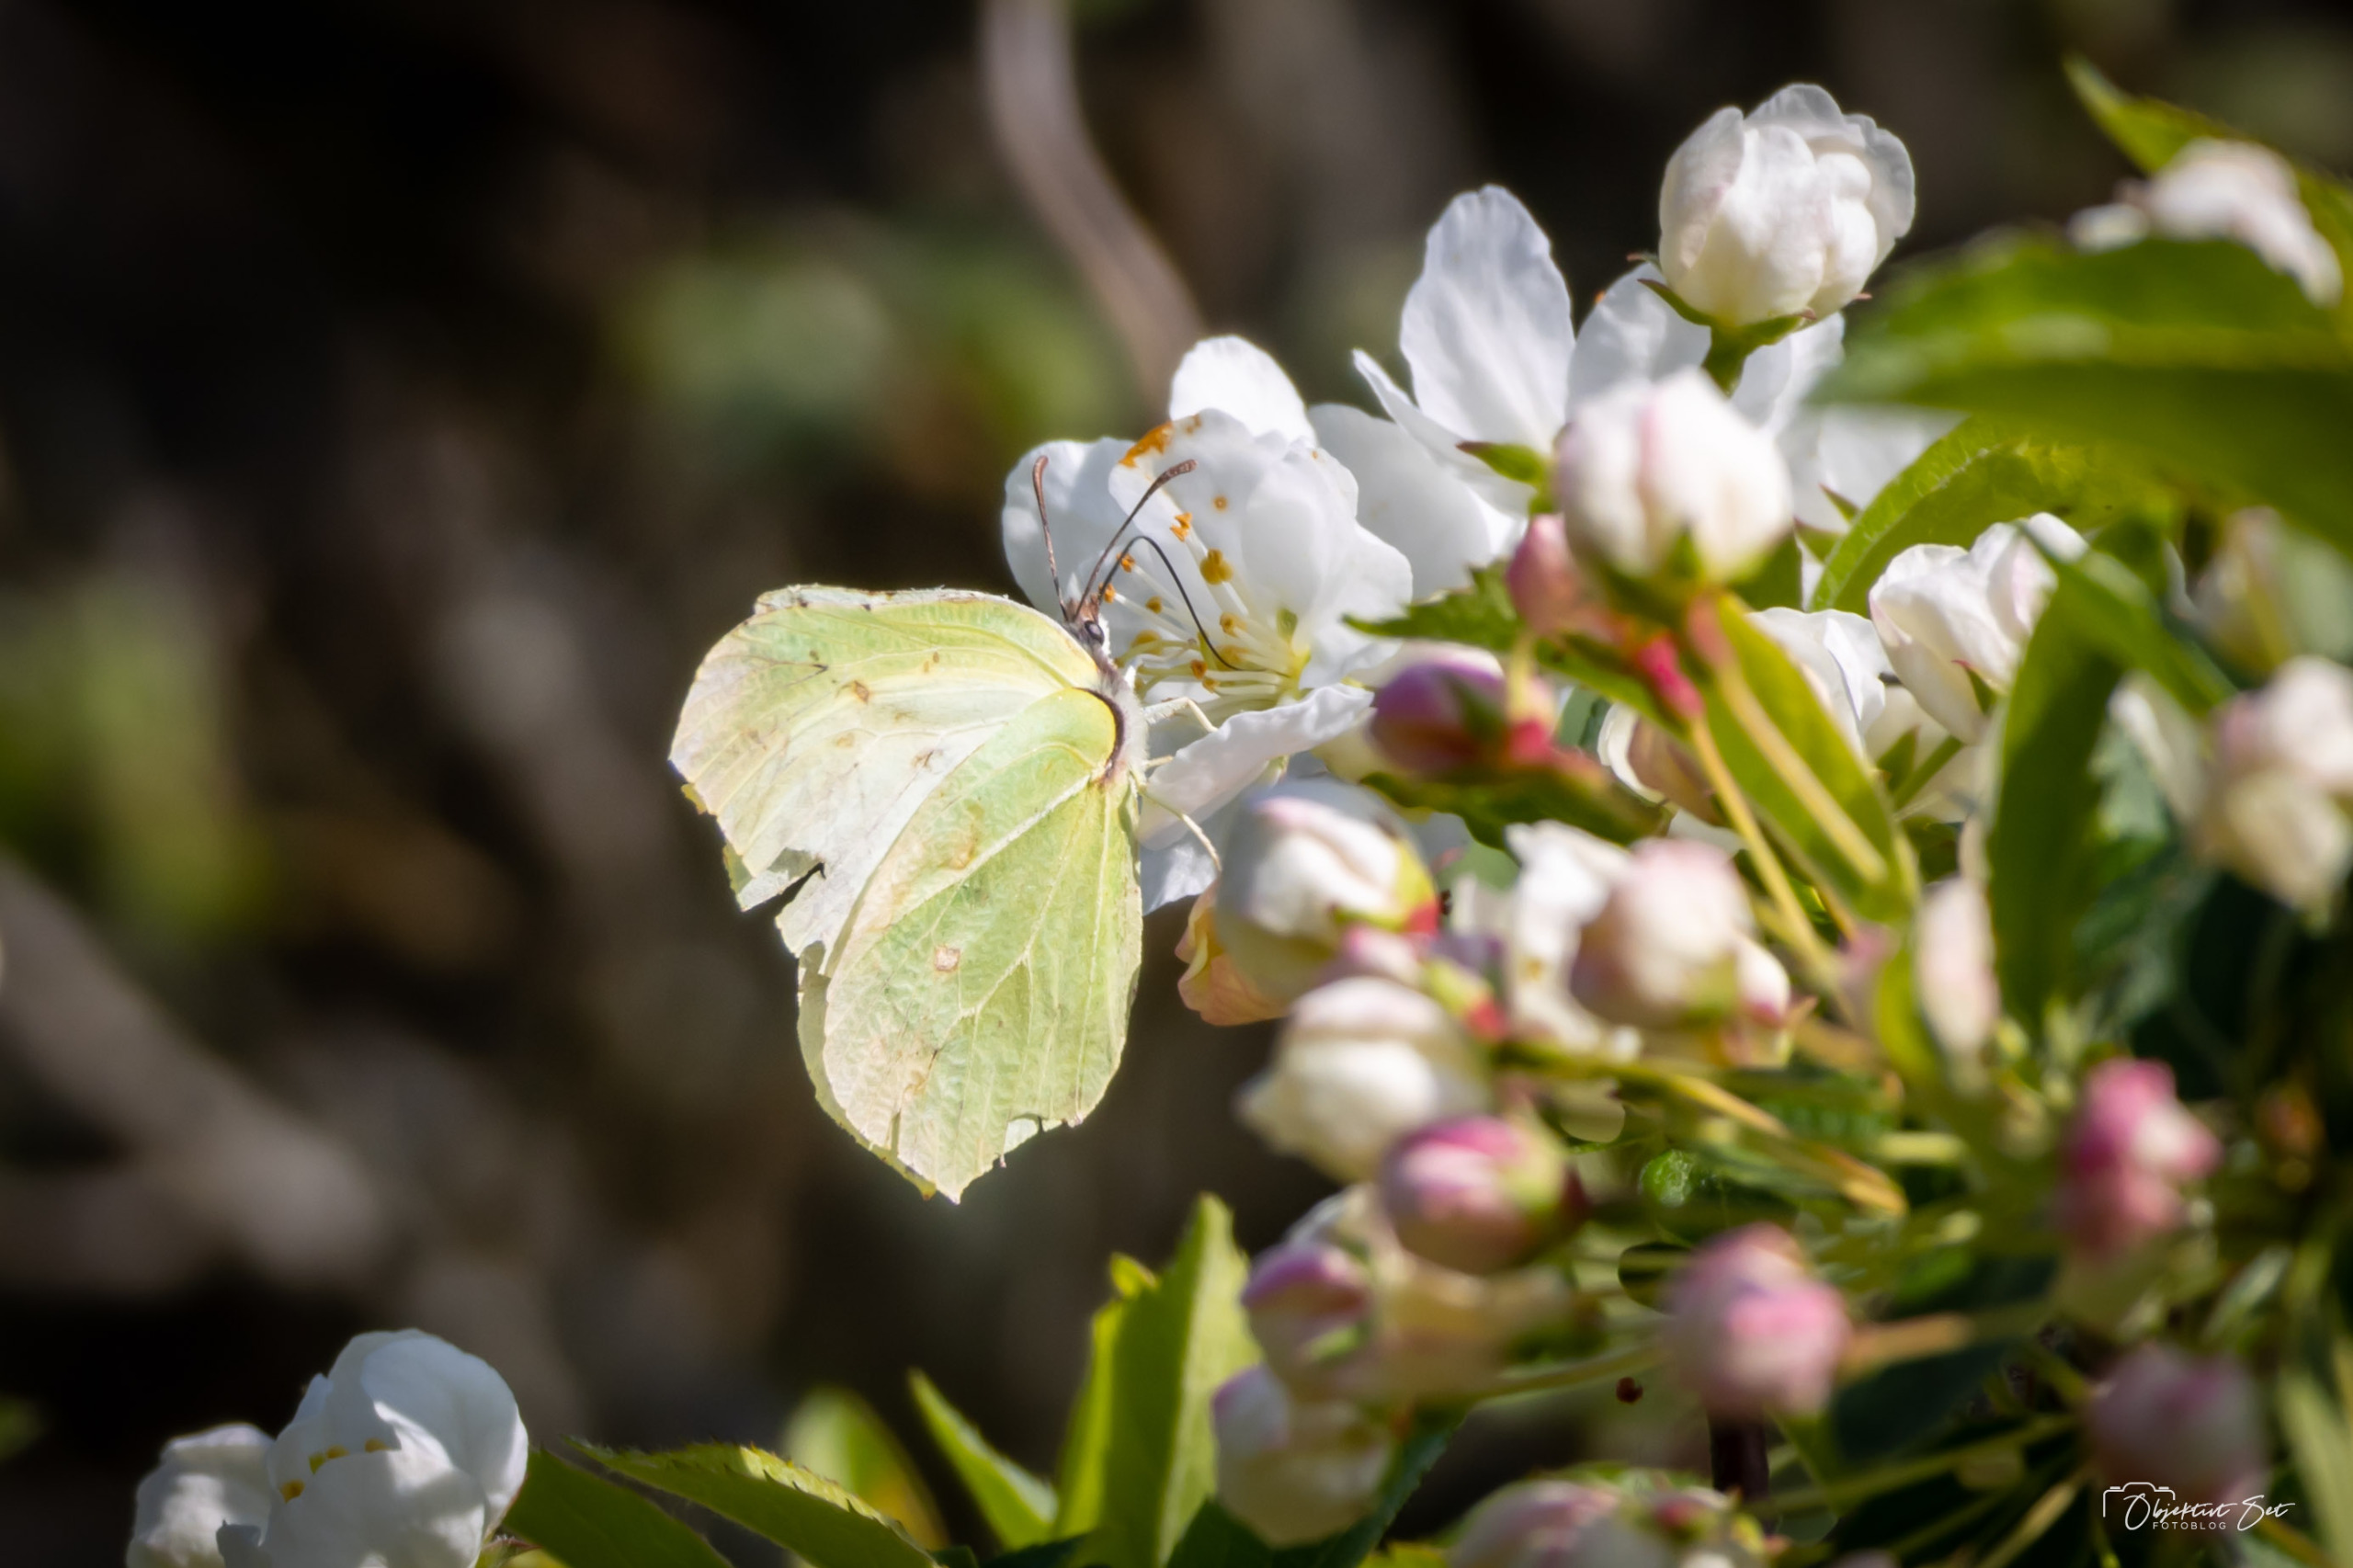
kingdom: Animalia
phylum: Arthropoda
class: Insecta
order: Lepidoptera
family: Pieridae
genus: Gonepteryx
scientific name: Gonepteryx rhamni
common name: Citronsommerfugl
